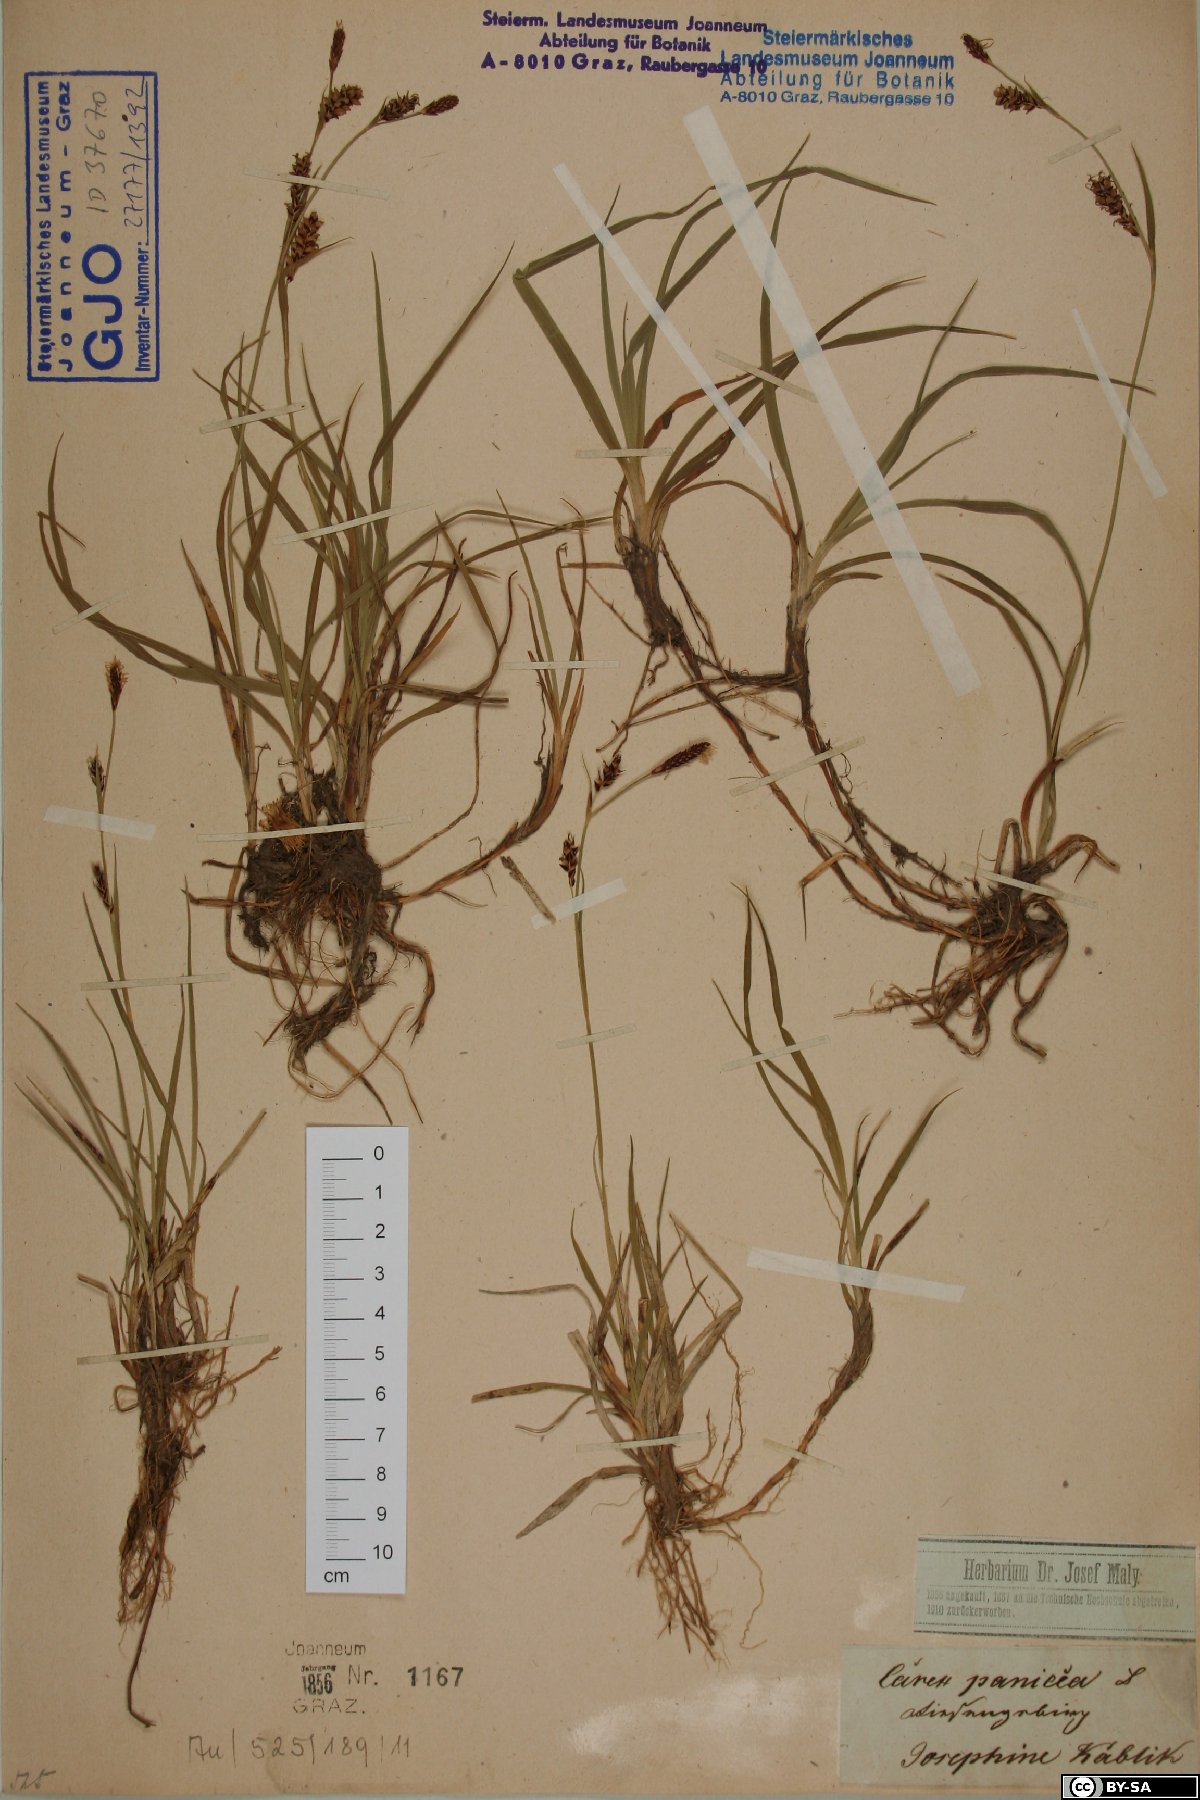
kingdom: Plantae
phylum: Tracheophyta
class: Liliopsida
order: Poales
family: Cyperaceae
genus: Carex
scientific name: Carex panicea
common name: Carnation sedge
